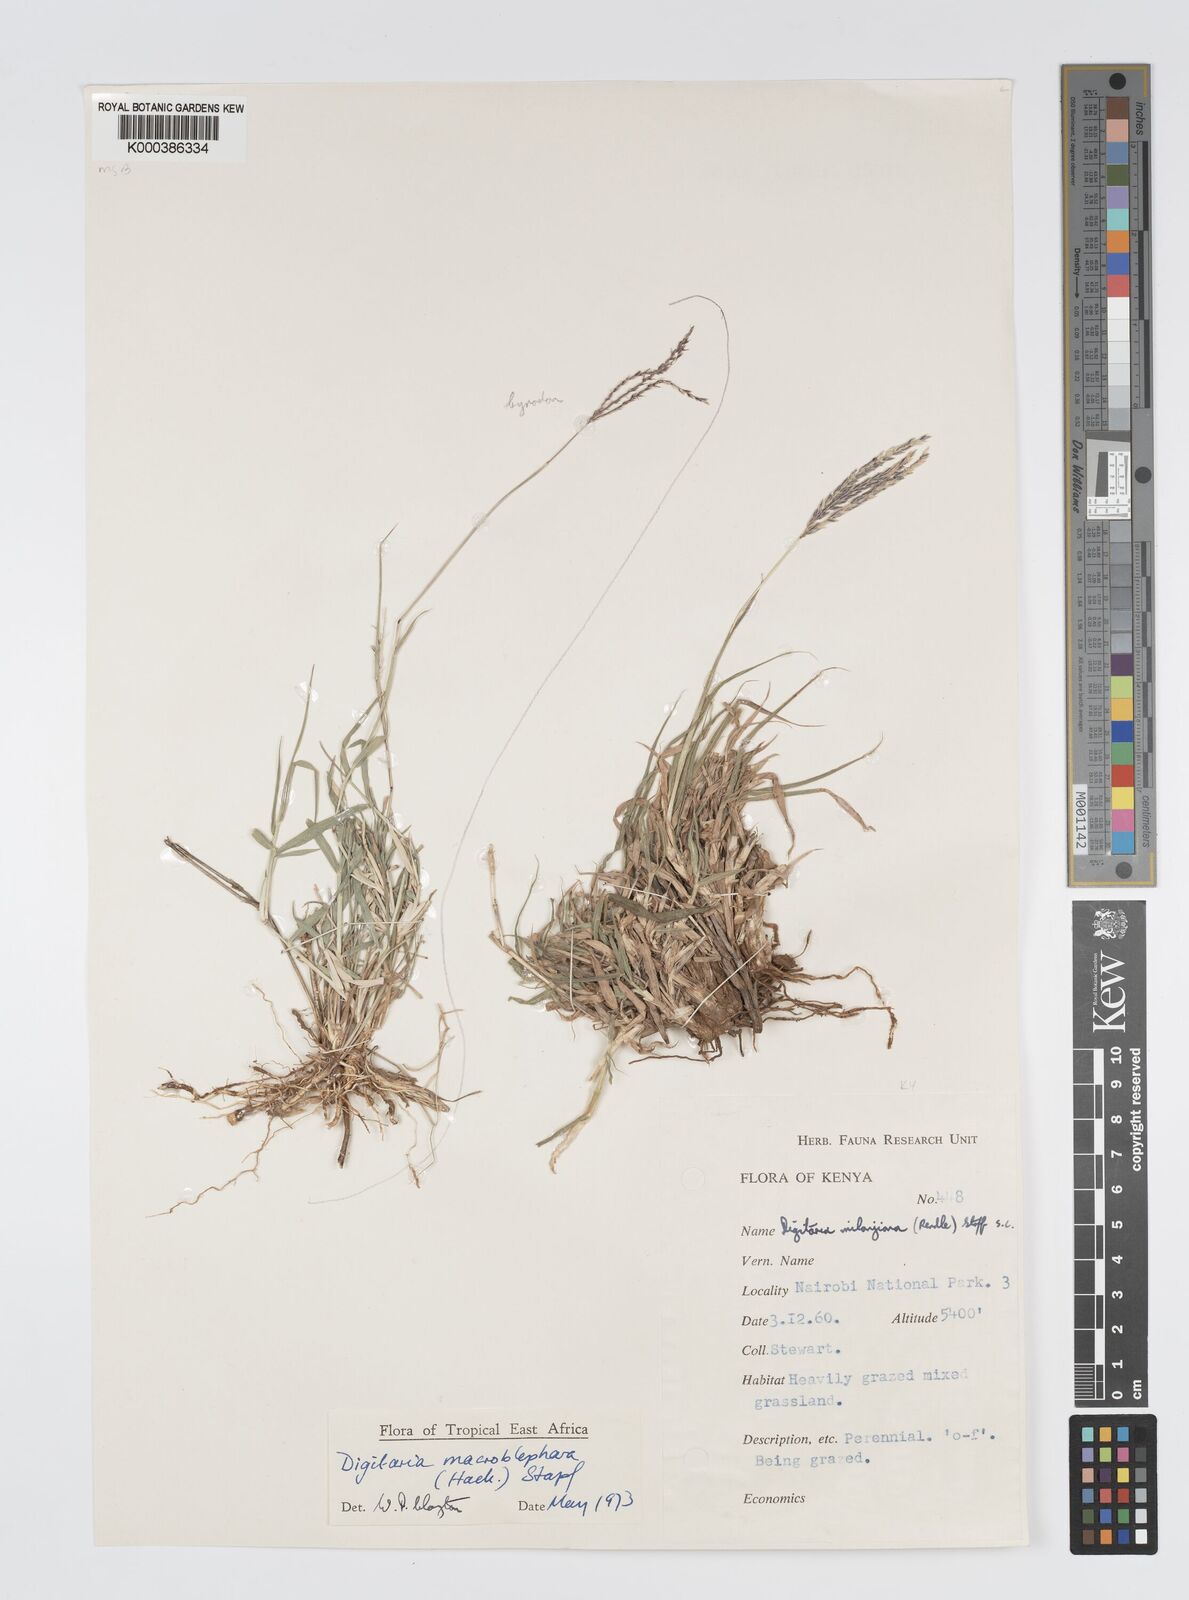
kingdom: Plantae
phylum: Tracheophyta
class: Liliopsida
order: Poales
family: Poaceae
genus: Digitaria
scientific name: Digitaria macroblephara
